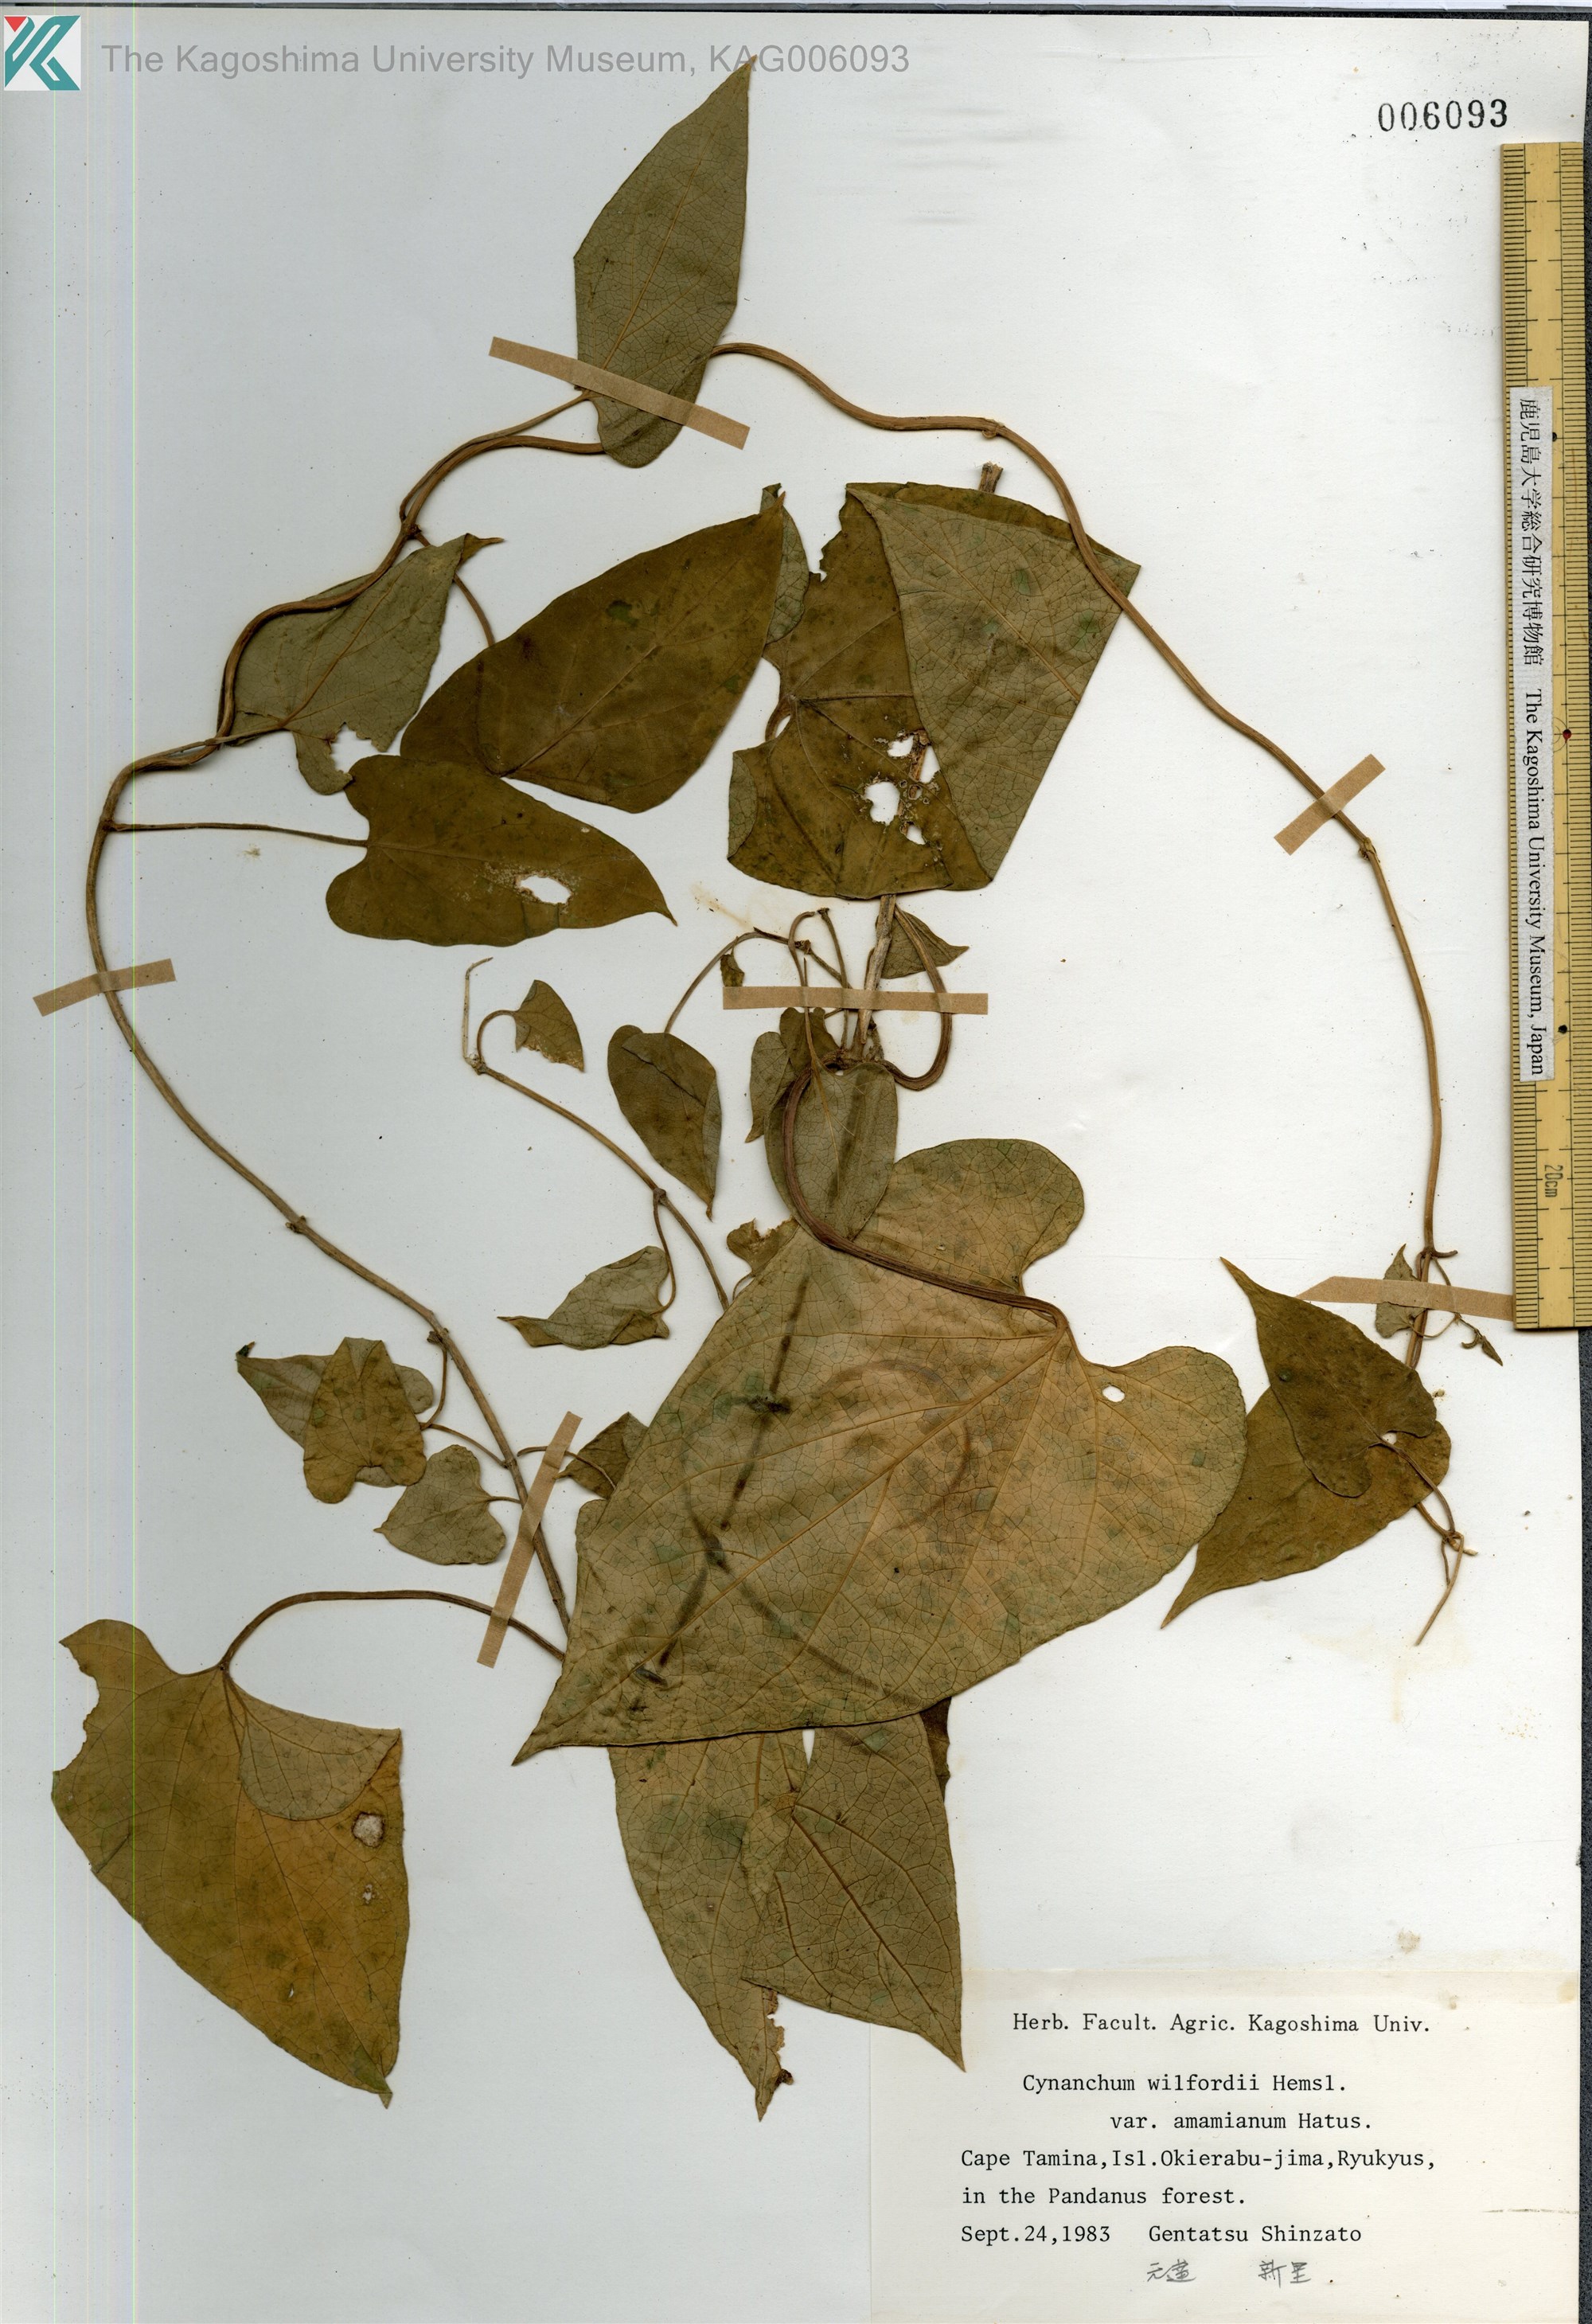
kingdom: Plantae
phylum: Tracheophyta
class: Magnoliopsida
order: Gentianales
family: Apocynaceae
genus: Cynanchum
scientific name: Cynanchum boudieri
